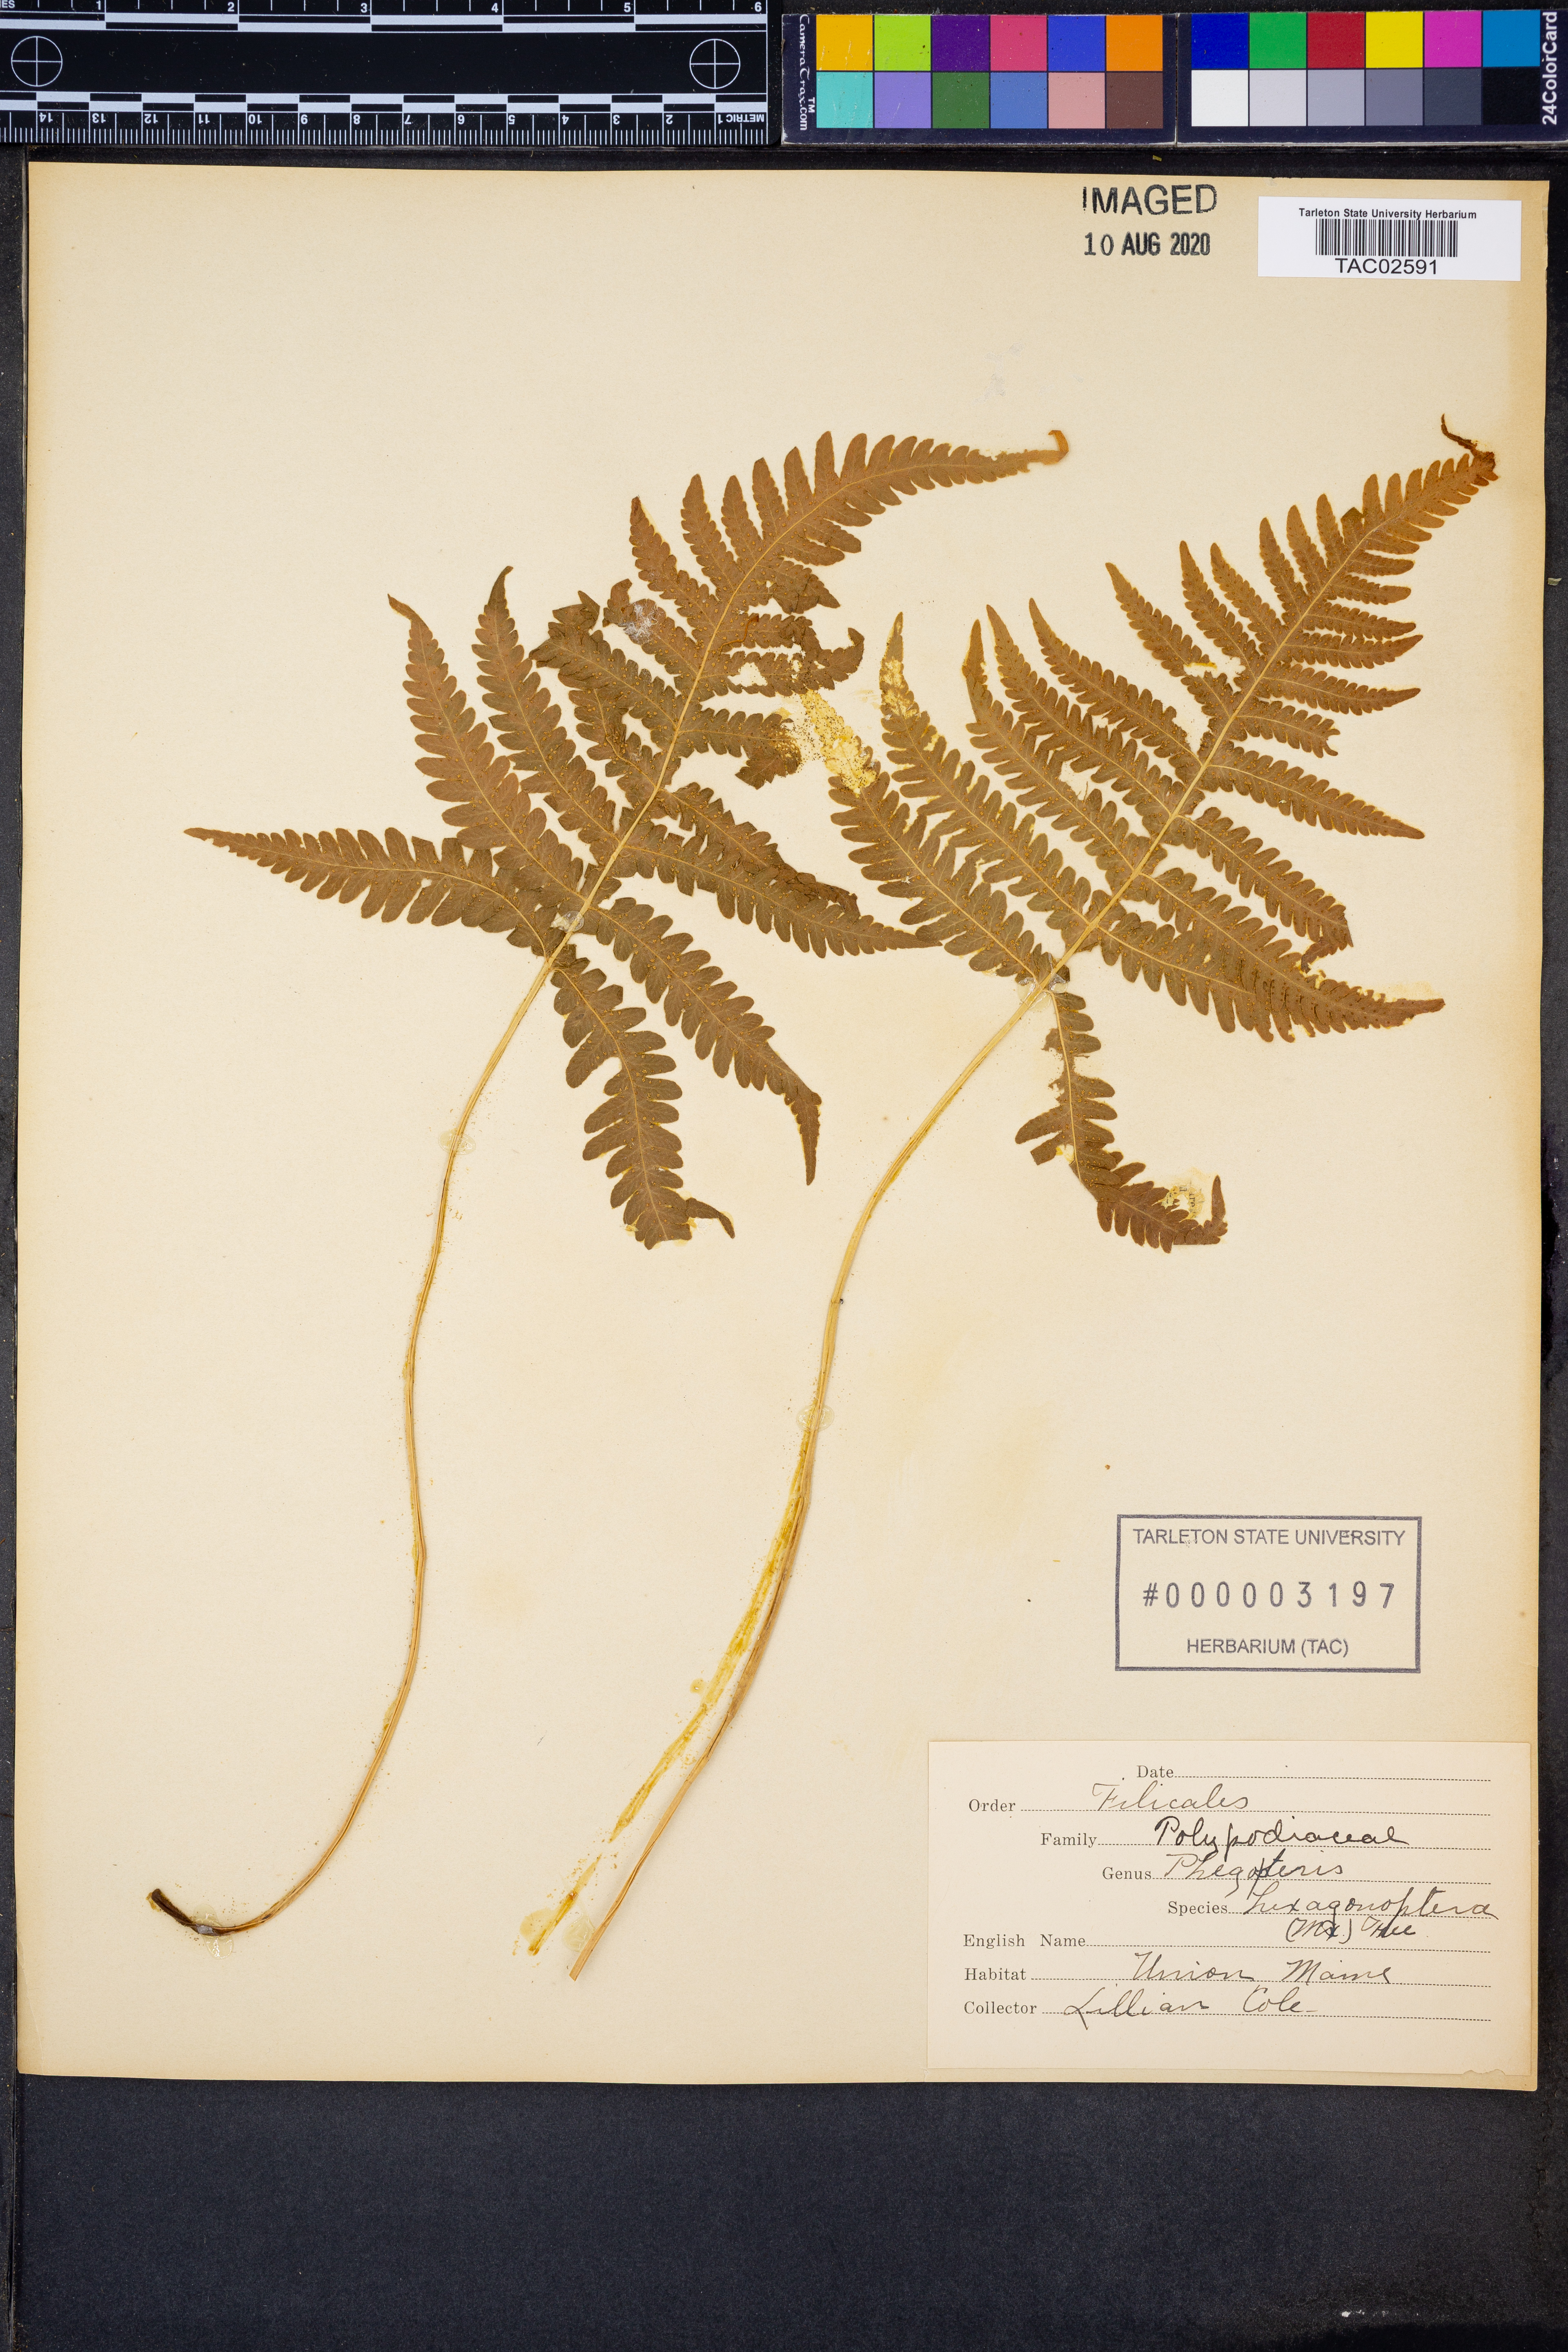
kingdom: Plantae
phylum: Tracheophyta
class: Polypodiopsida
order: Polypodiales
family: Thelypteridaceae
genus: Phegopteris
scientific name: Phegopteris hexagonoptera
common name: Broad beech fern
